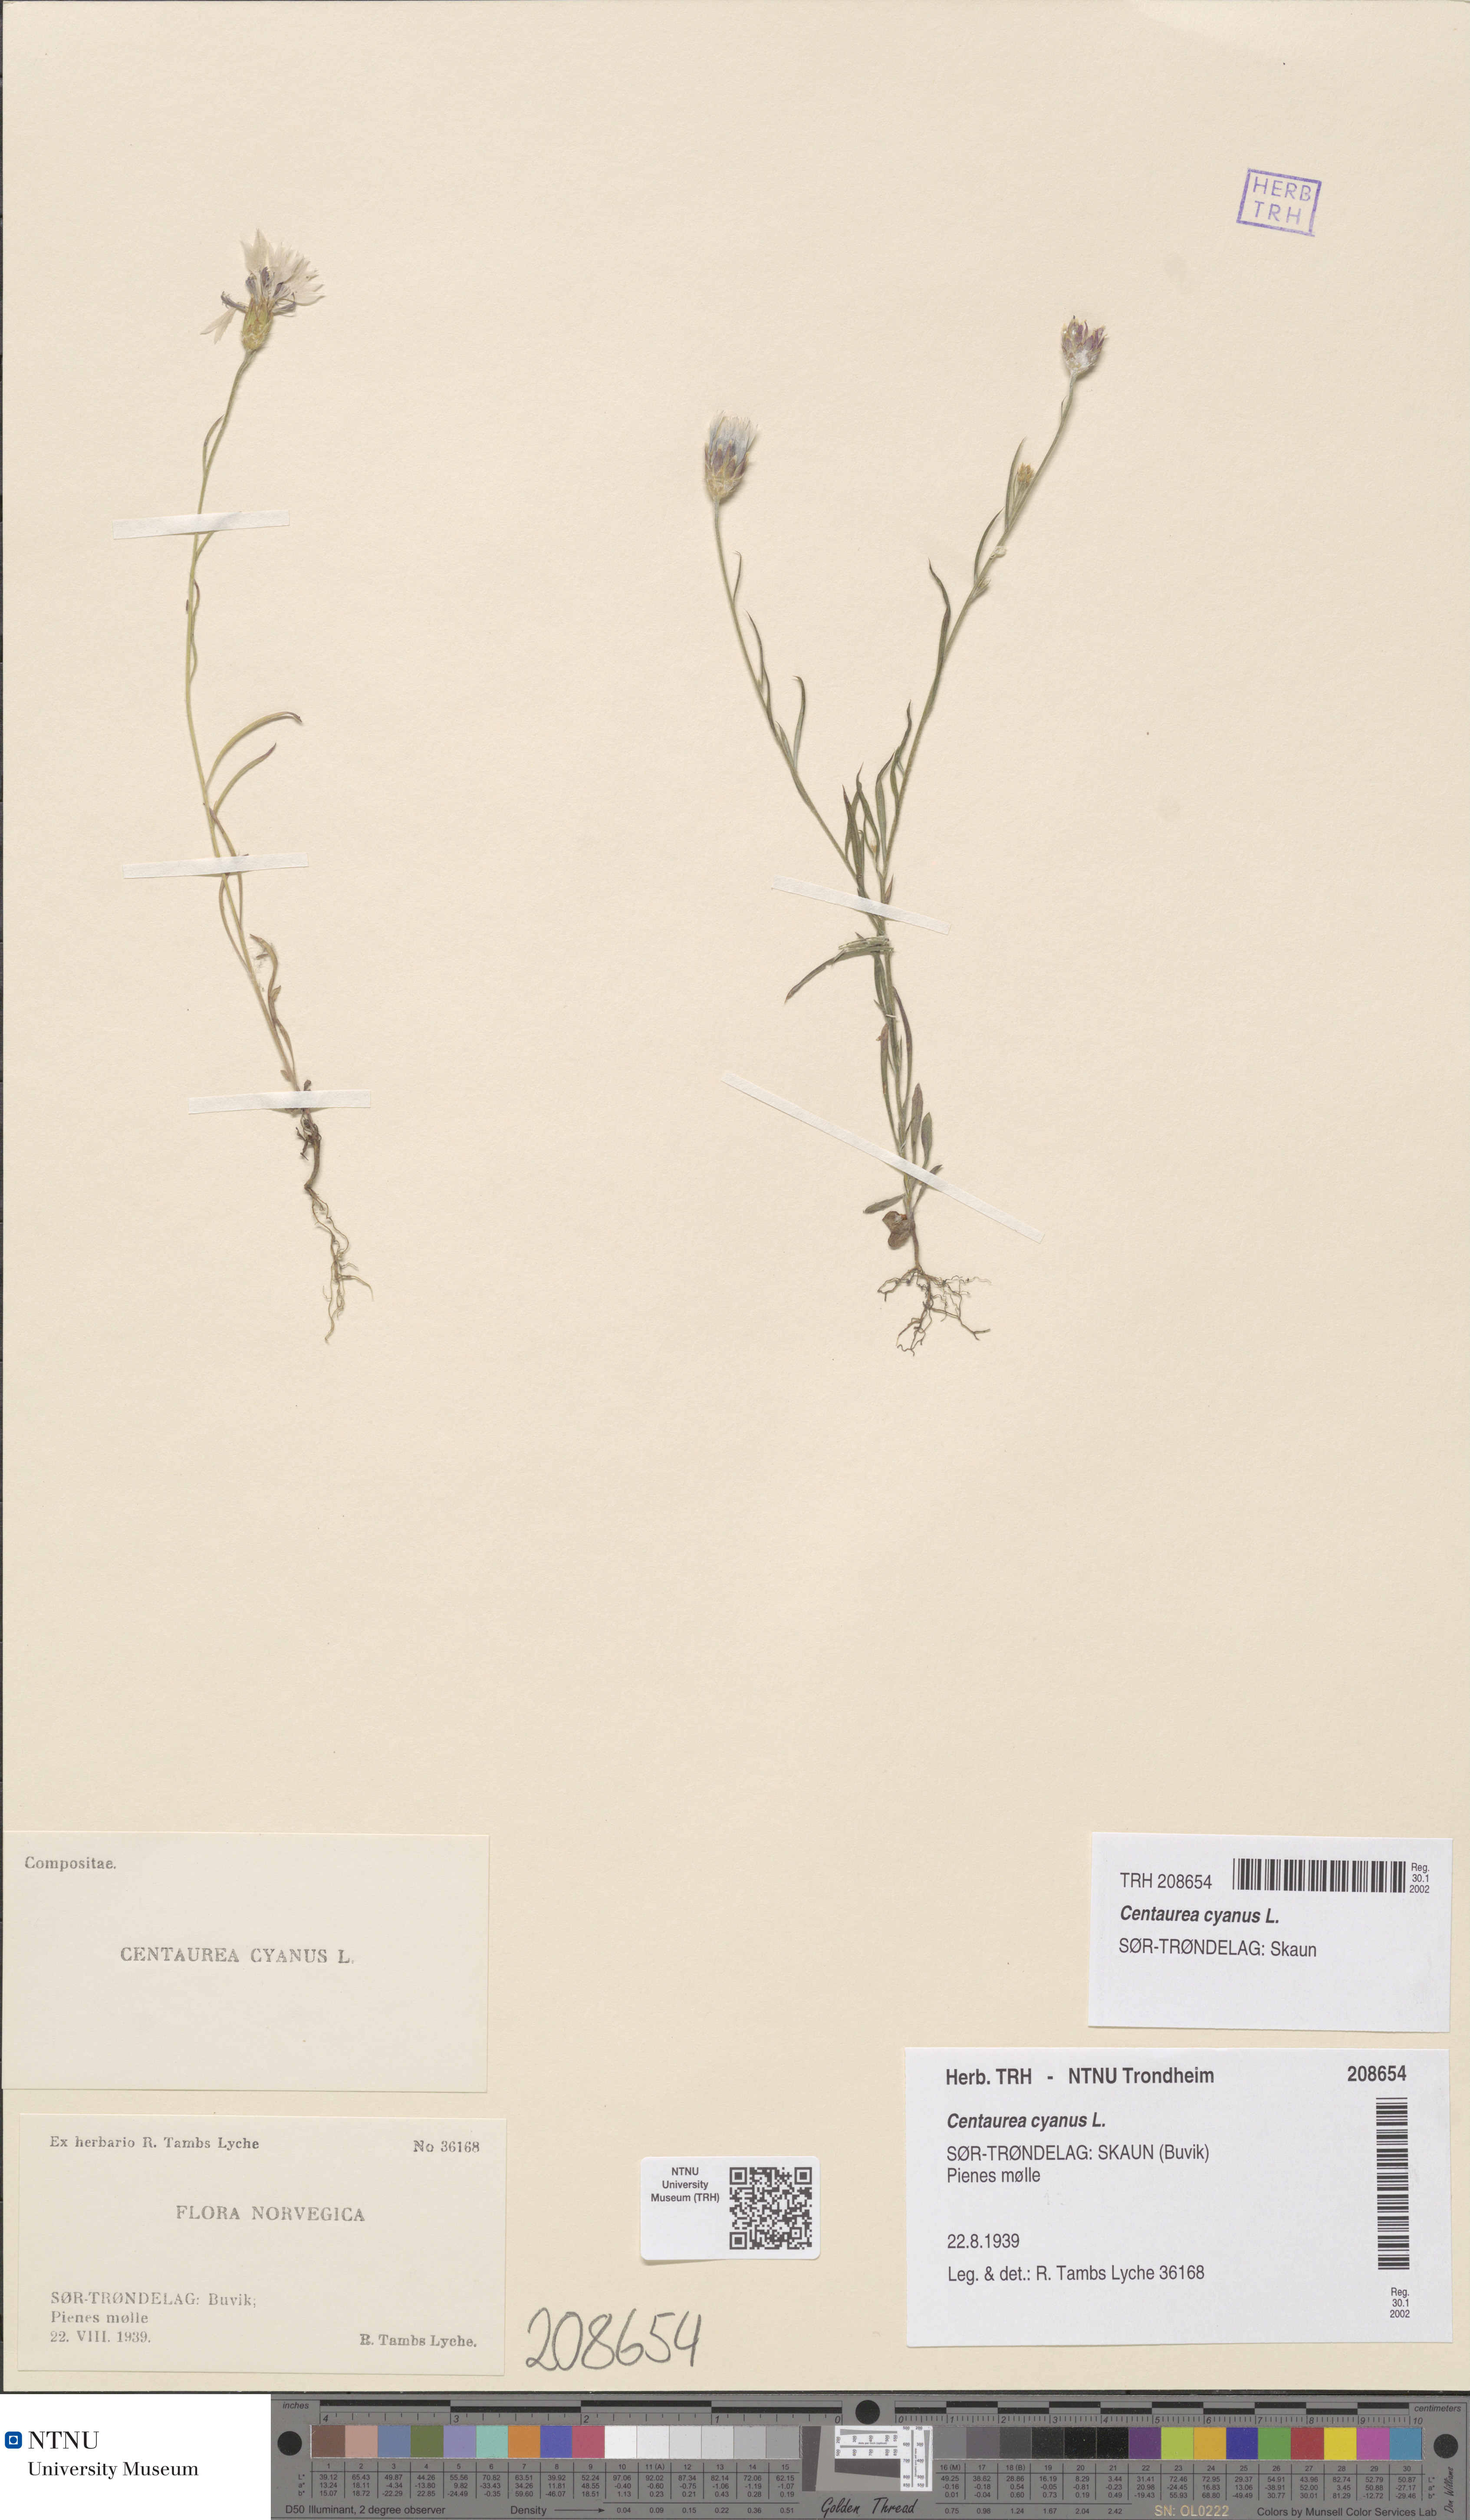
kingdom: Plantae
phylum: Tracheophyta
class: Magnoliopsida
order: Asterales
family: Asteraceae
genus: Centaurea
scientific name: Centaurea cyanus
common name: Cornflower
